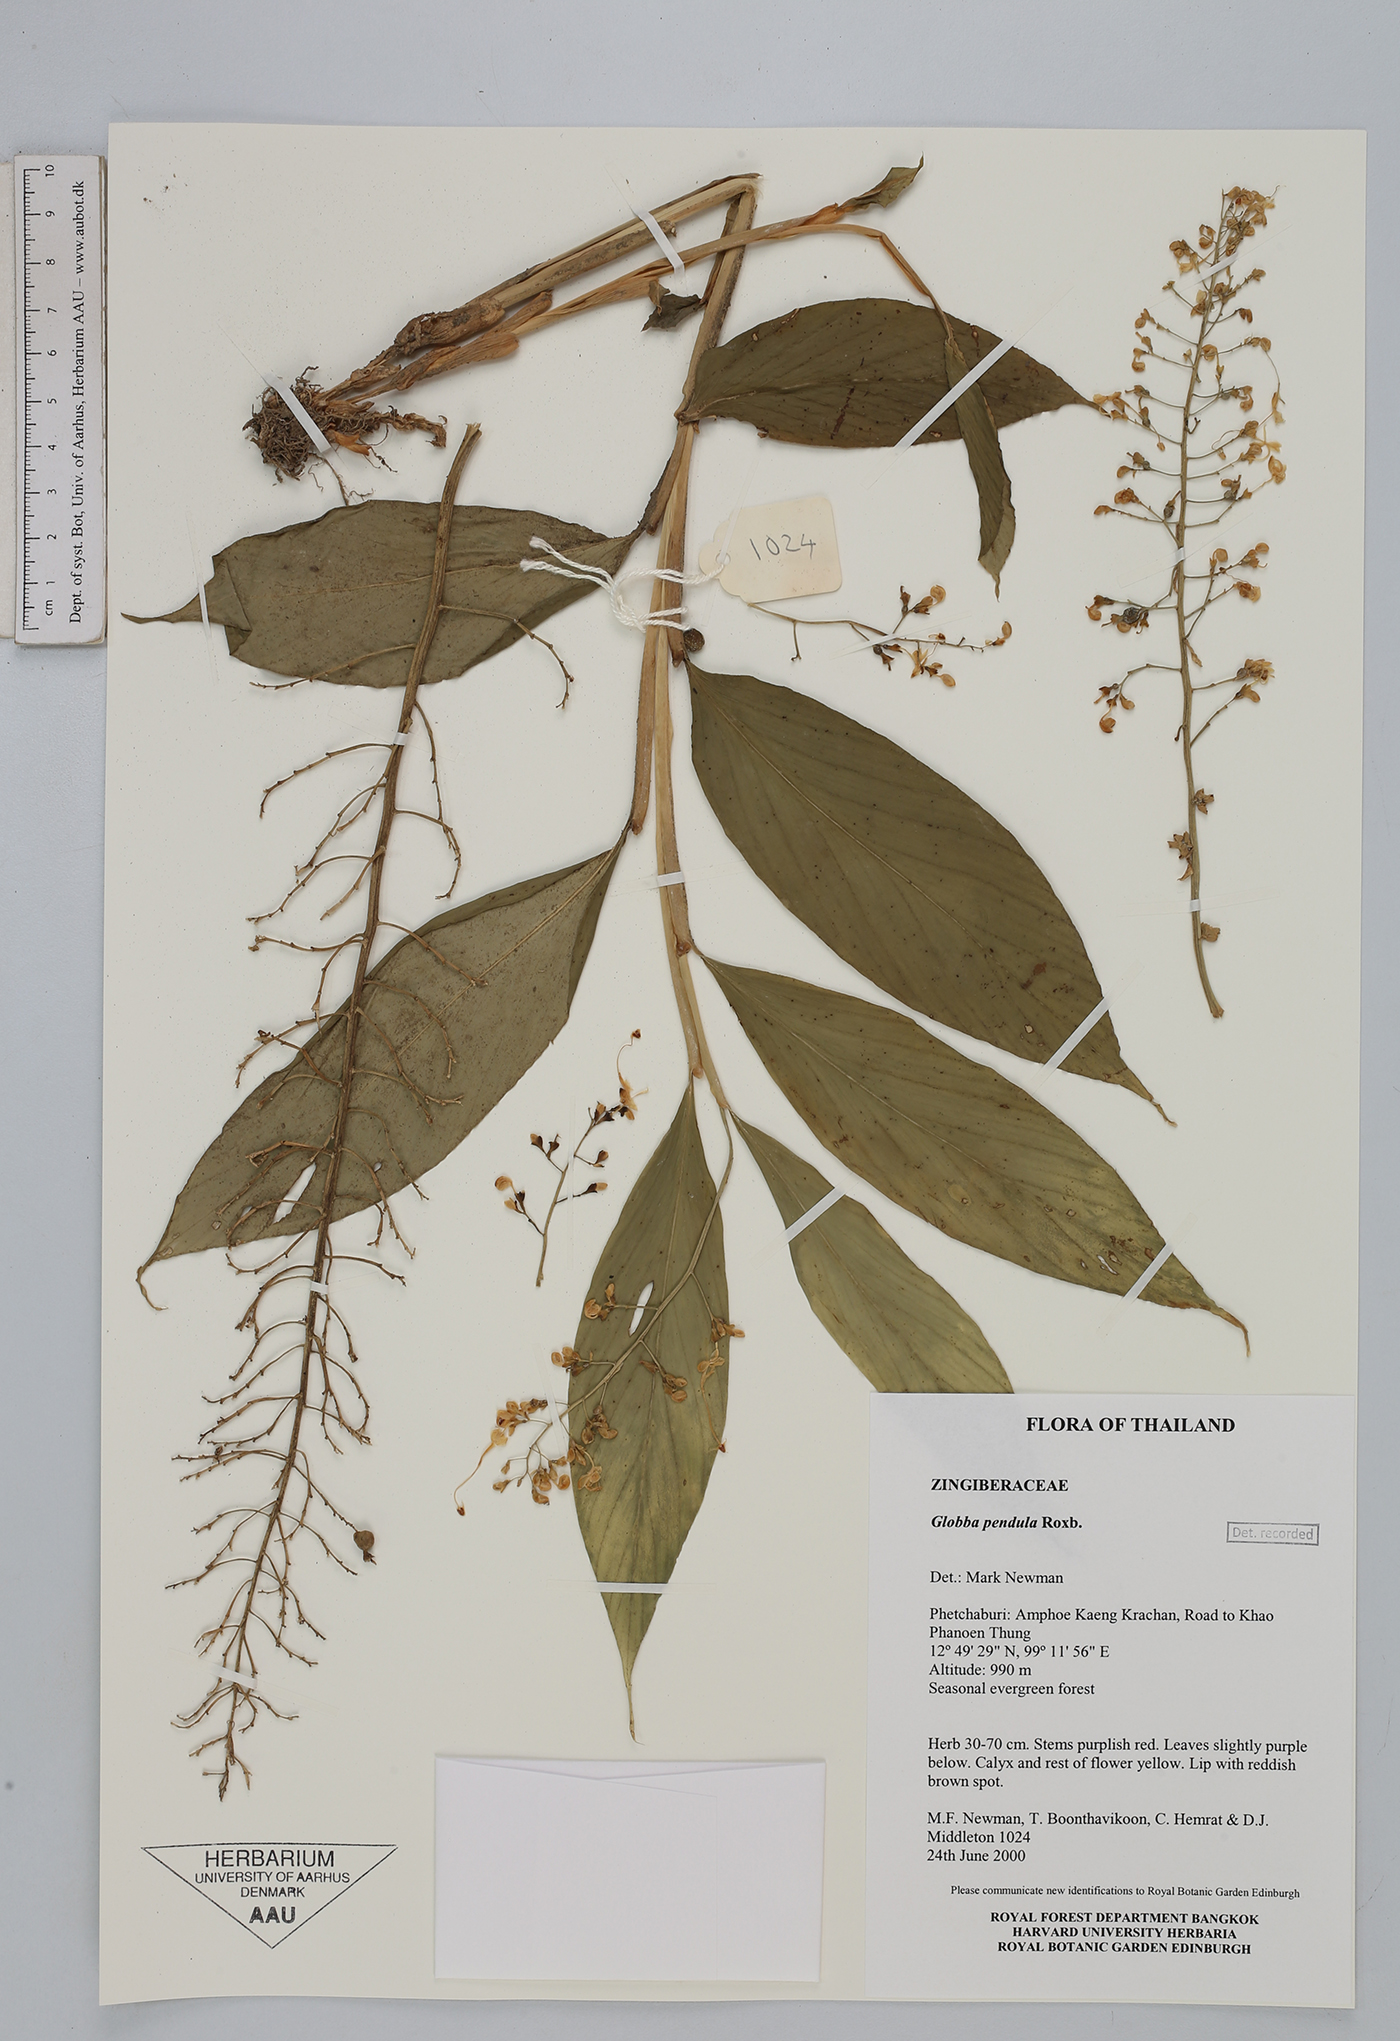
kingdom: Plantae
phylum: Tracheophyta
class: Liliopsida
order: Zingiberales
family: Zingiberaceae
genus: Globba
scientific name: Globba pendula
